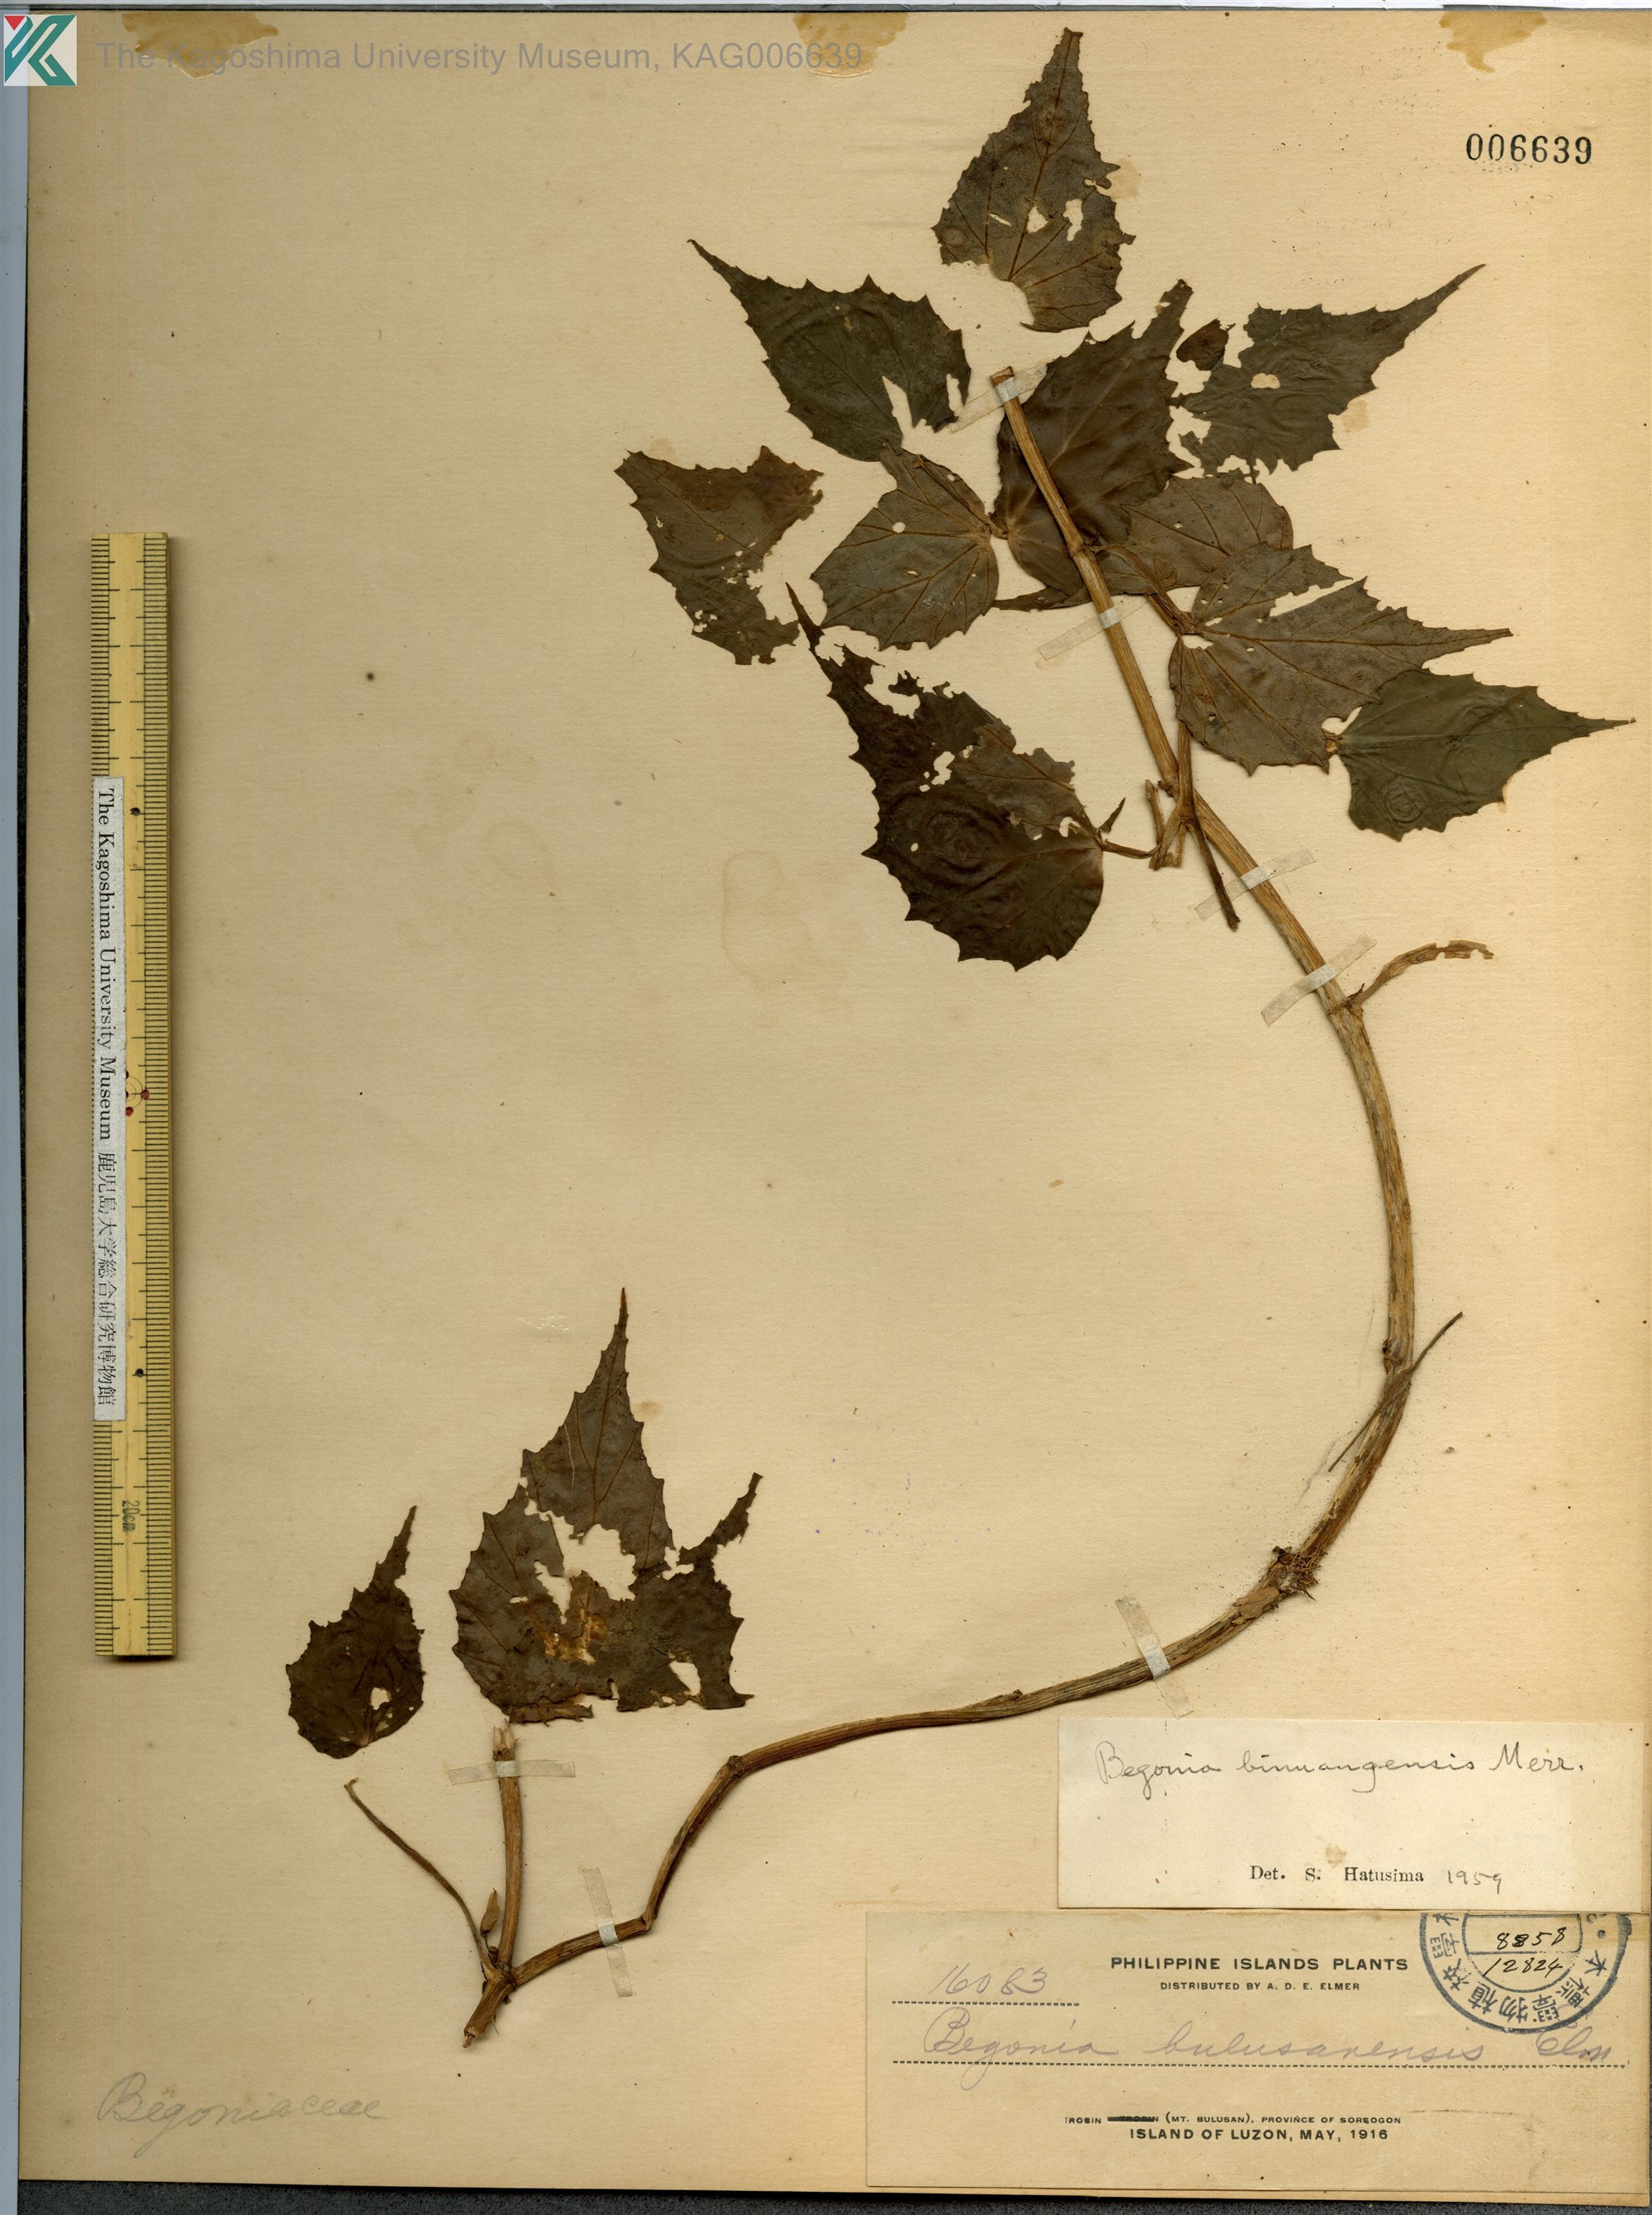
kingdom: Plantae
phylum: Tracheophyta
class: Magnoliopsida
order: Cucurbitales
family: Begoniaceae
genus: Begonia
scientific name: Begonia binuangensis
